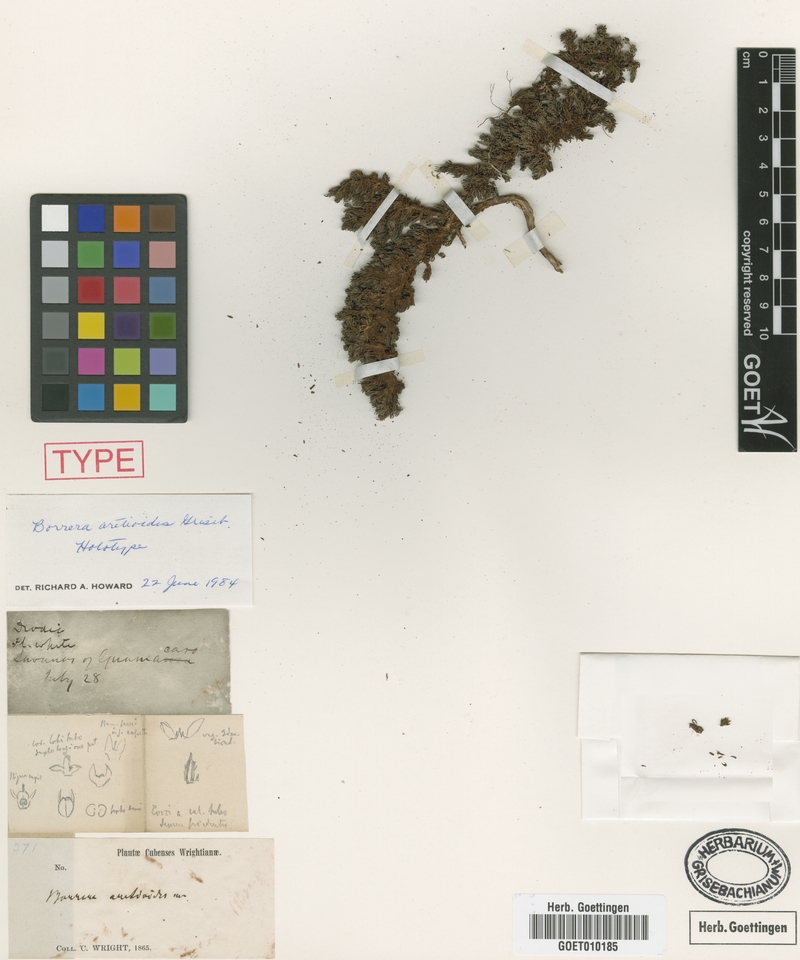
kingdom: Plantae
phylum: Tracheophyta
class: Magnoliopsida
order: Gentianales
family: Rubiaceae
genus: Spermacoce
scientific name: Spermacoce aretioides
